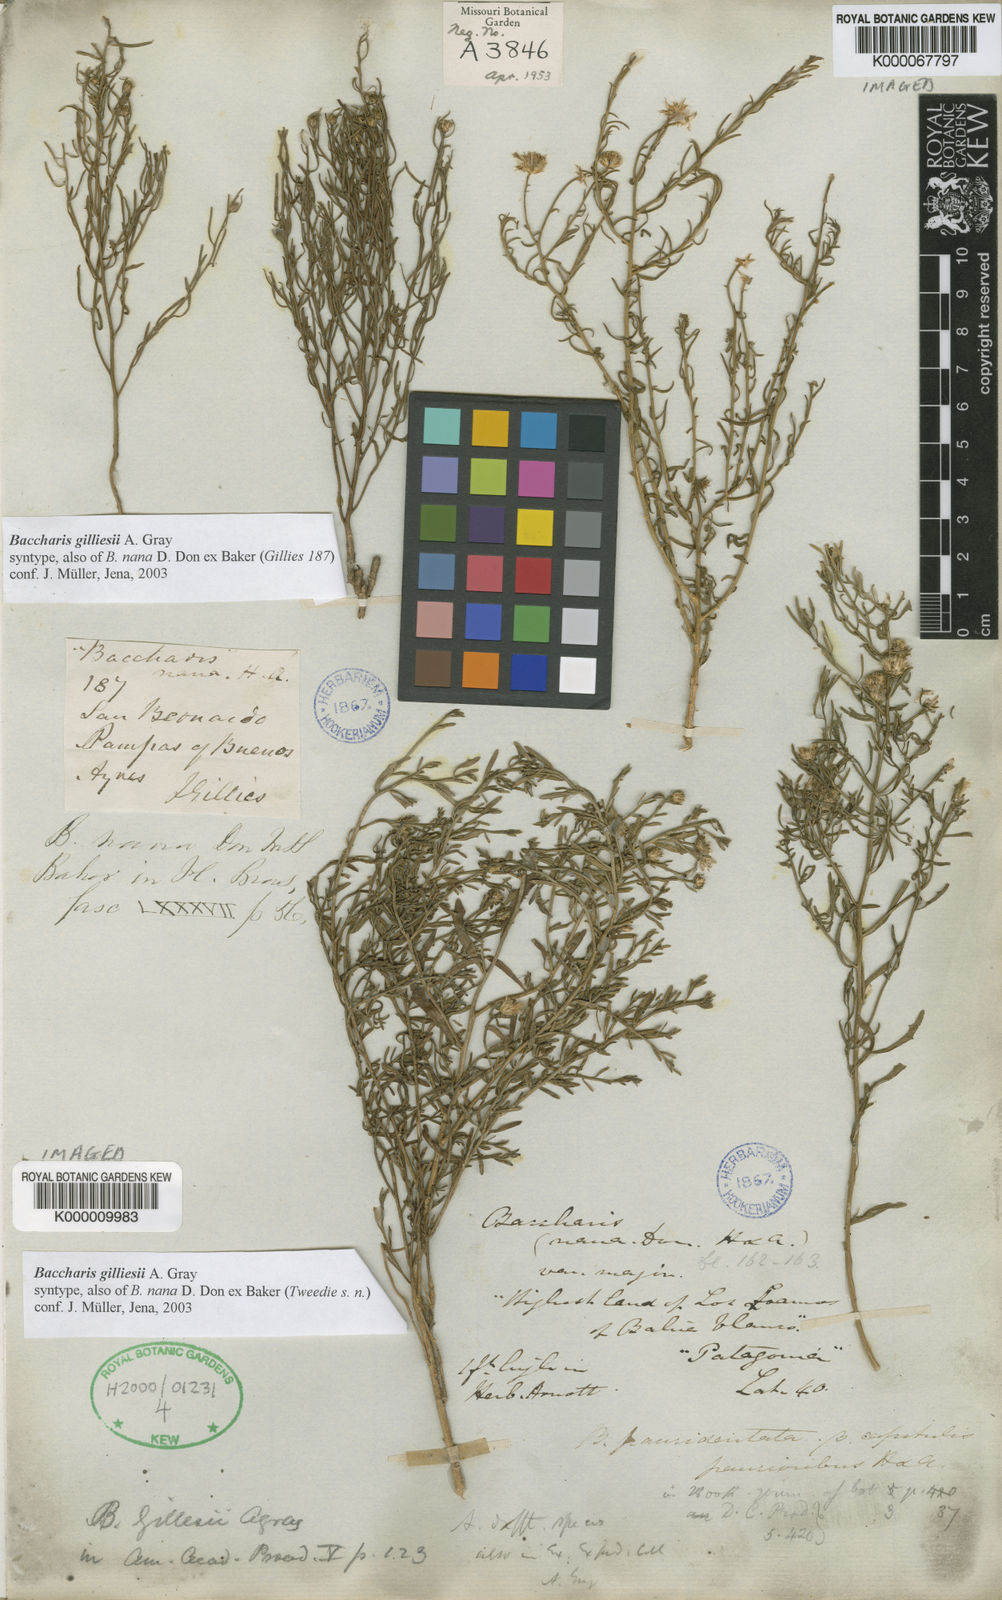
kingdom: Plantae
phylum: Tracheophyta
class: Magnoliopsida
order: Asterales
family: Asteraceae
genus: Baccharis
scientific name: Baccharis gilliesii
